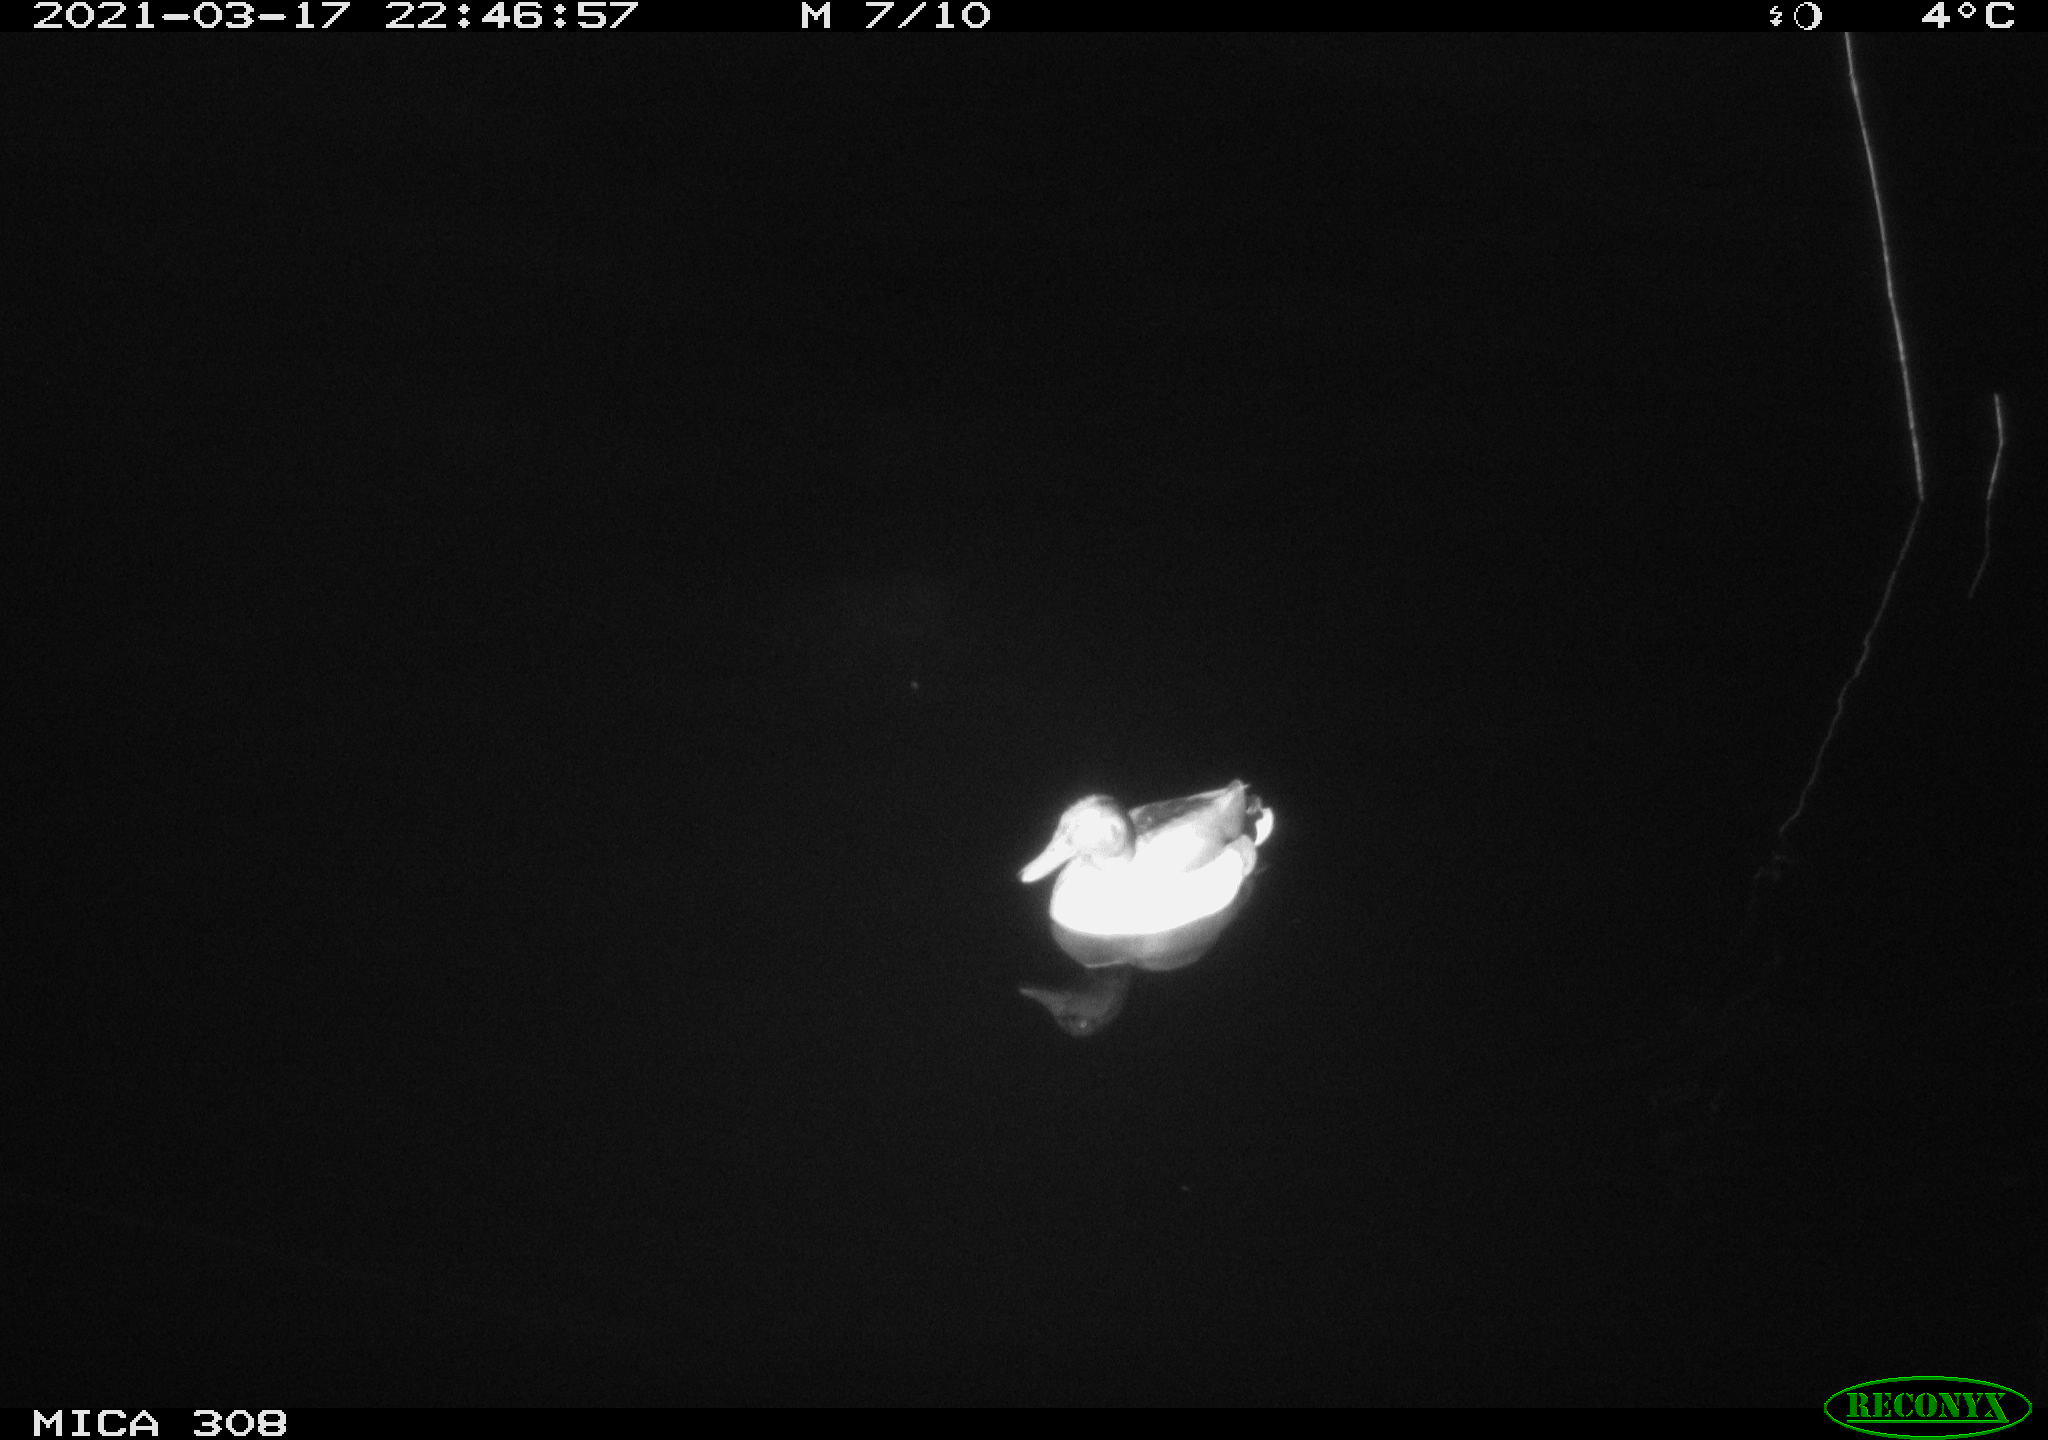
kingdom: Animalia
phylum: Chordata
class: Aves
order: Anseriformes
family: Anatidae
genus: Anas
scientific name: Anas platyrhynchos
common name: Mallard
